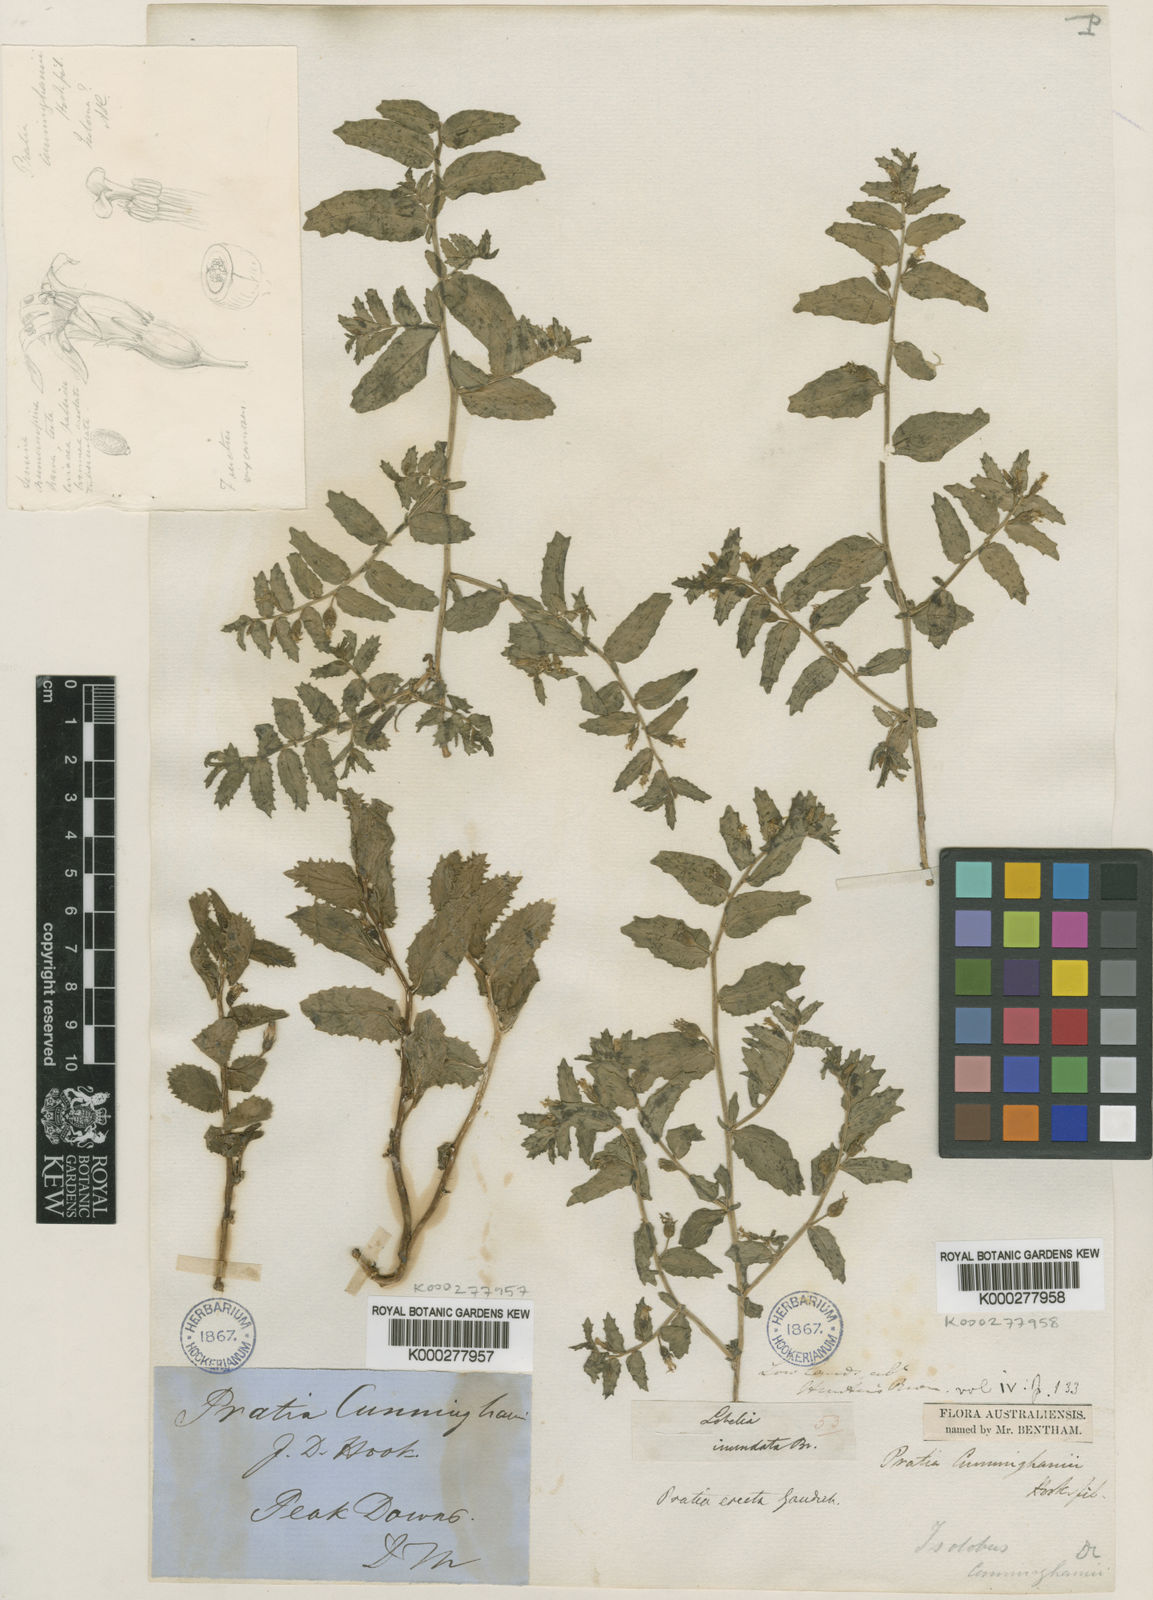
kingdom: Plantae
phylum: Tracheophyta
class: Magnoliopsida
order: Asterales
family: Campanulaceae
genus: Lobelia
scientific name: Lobelia concolor
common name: Poison pratia
